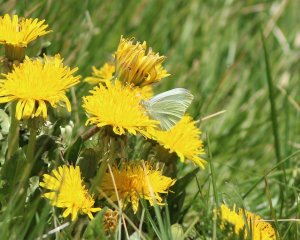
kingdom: Animalia
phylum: Arthropoda
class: Insecta
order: Lepidoptera
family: Pieridae
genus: Pieris
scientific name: Pieris rapae
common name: Cabbage White
